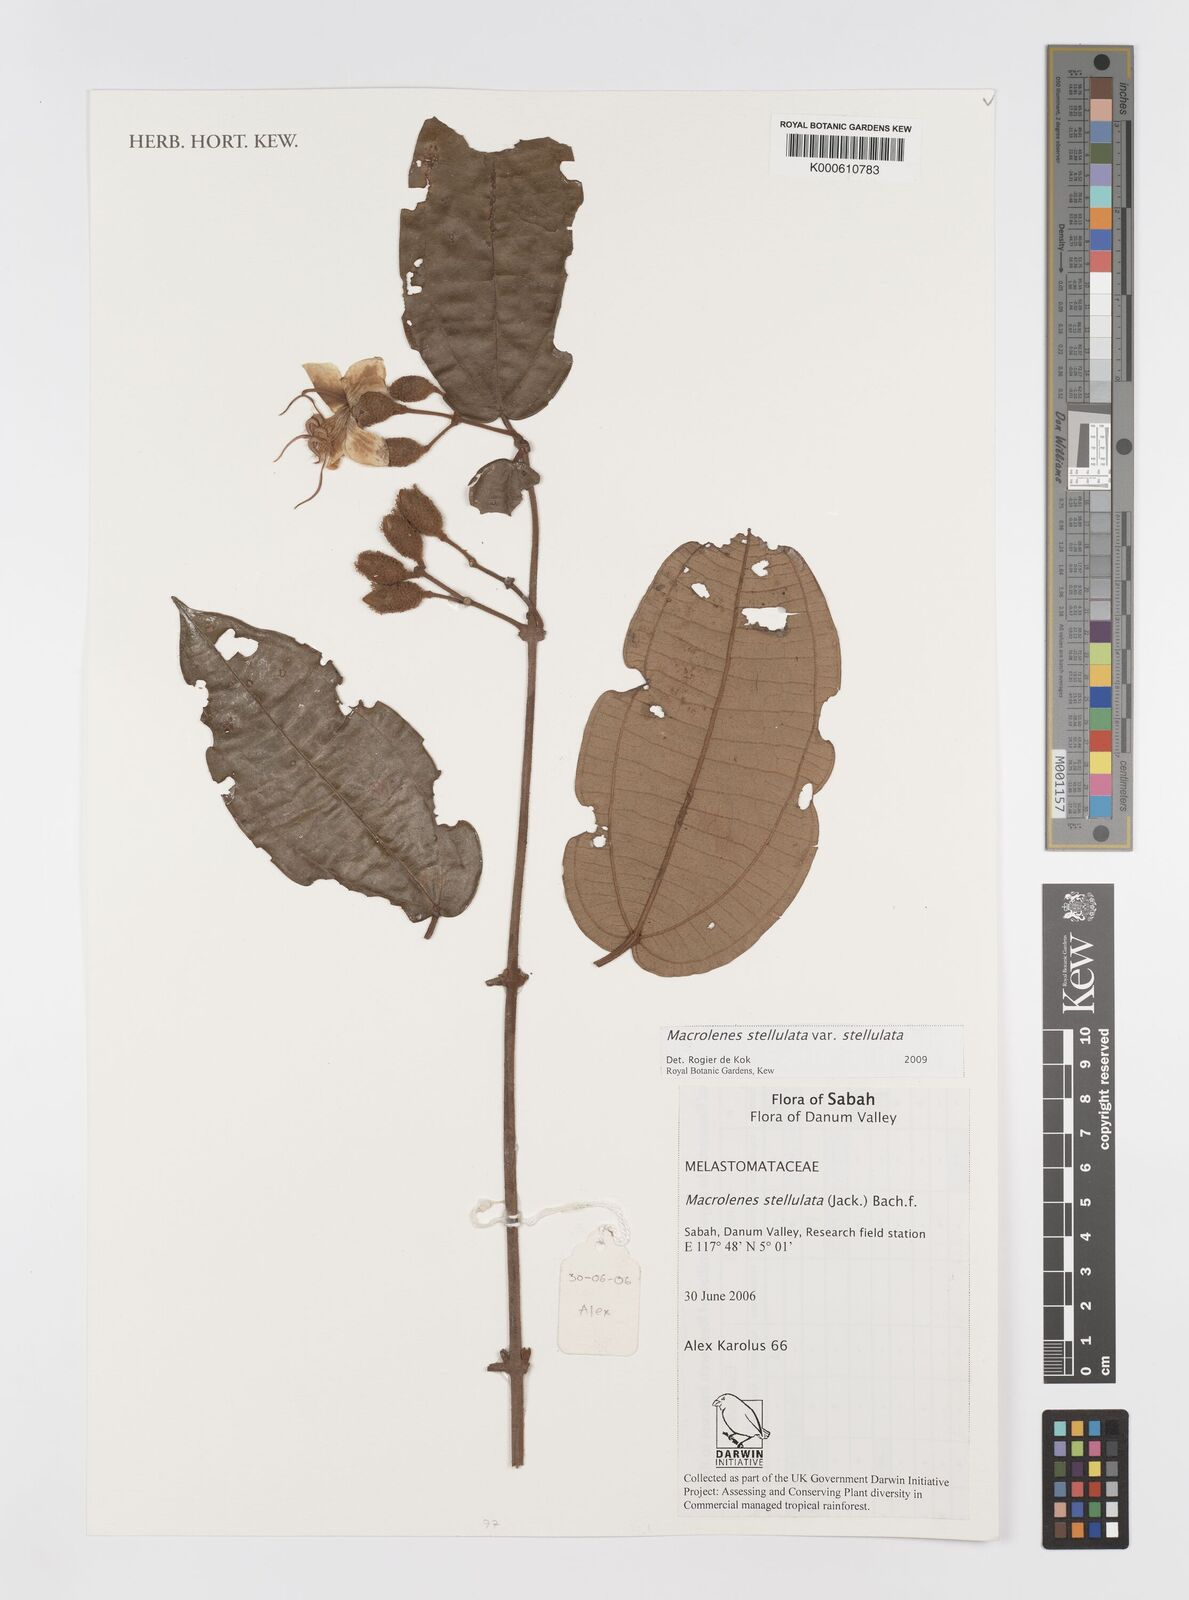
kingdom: Plantae
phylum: Tracheophyta
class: Magnoliopsida
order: Myrtales
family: Melastomataceae
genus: Macrolenes
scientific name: Macrolenes
